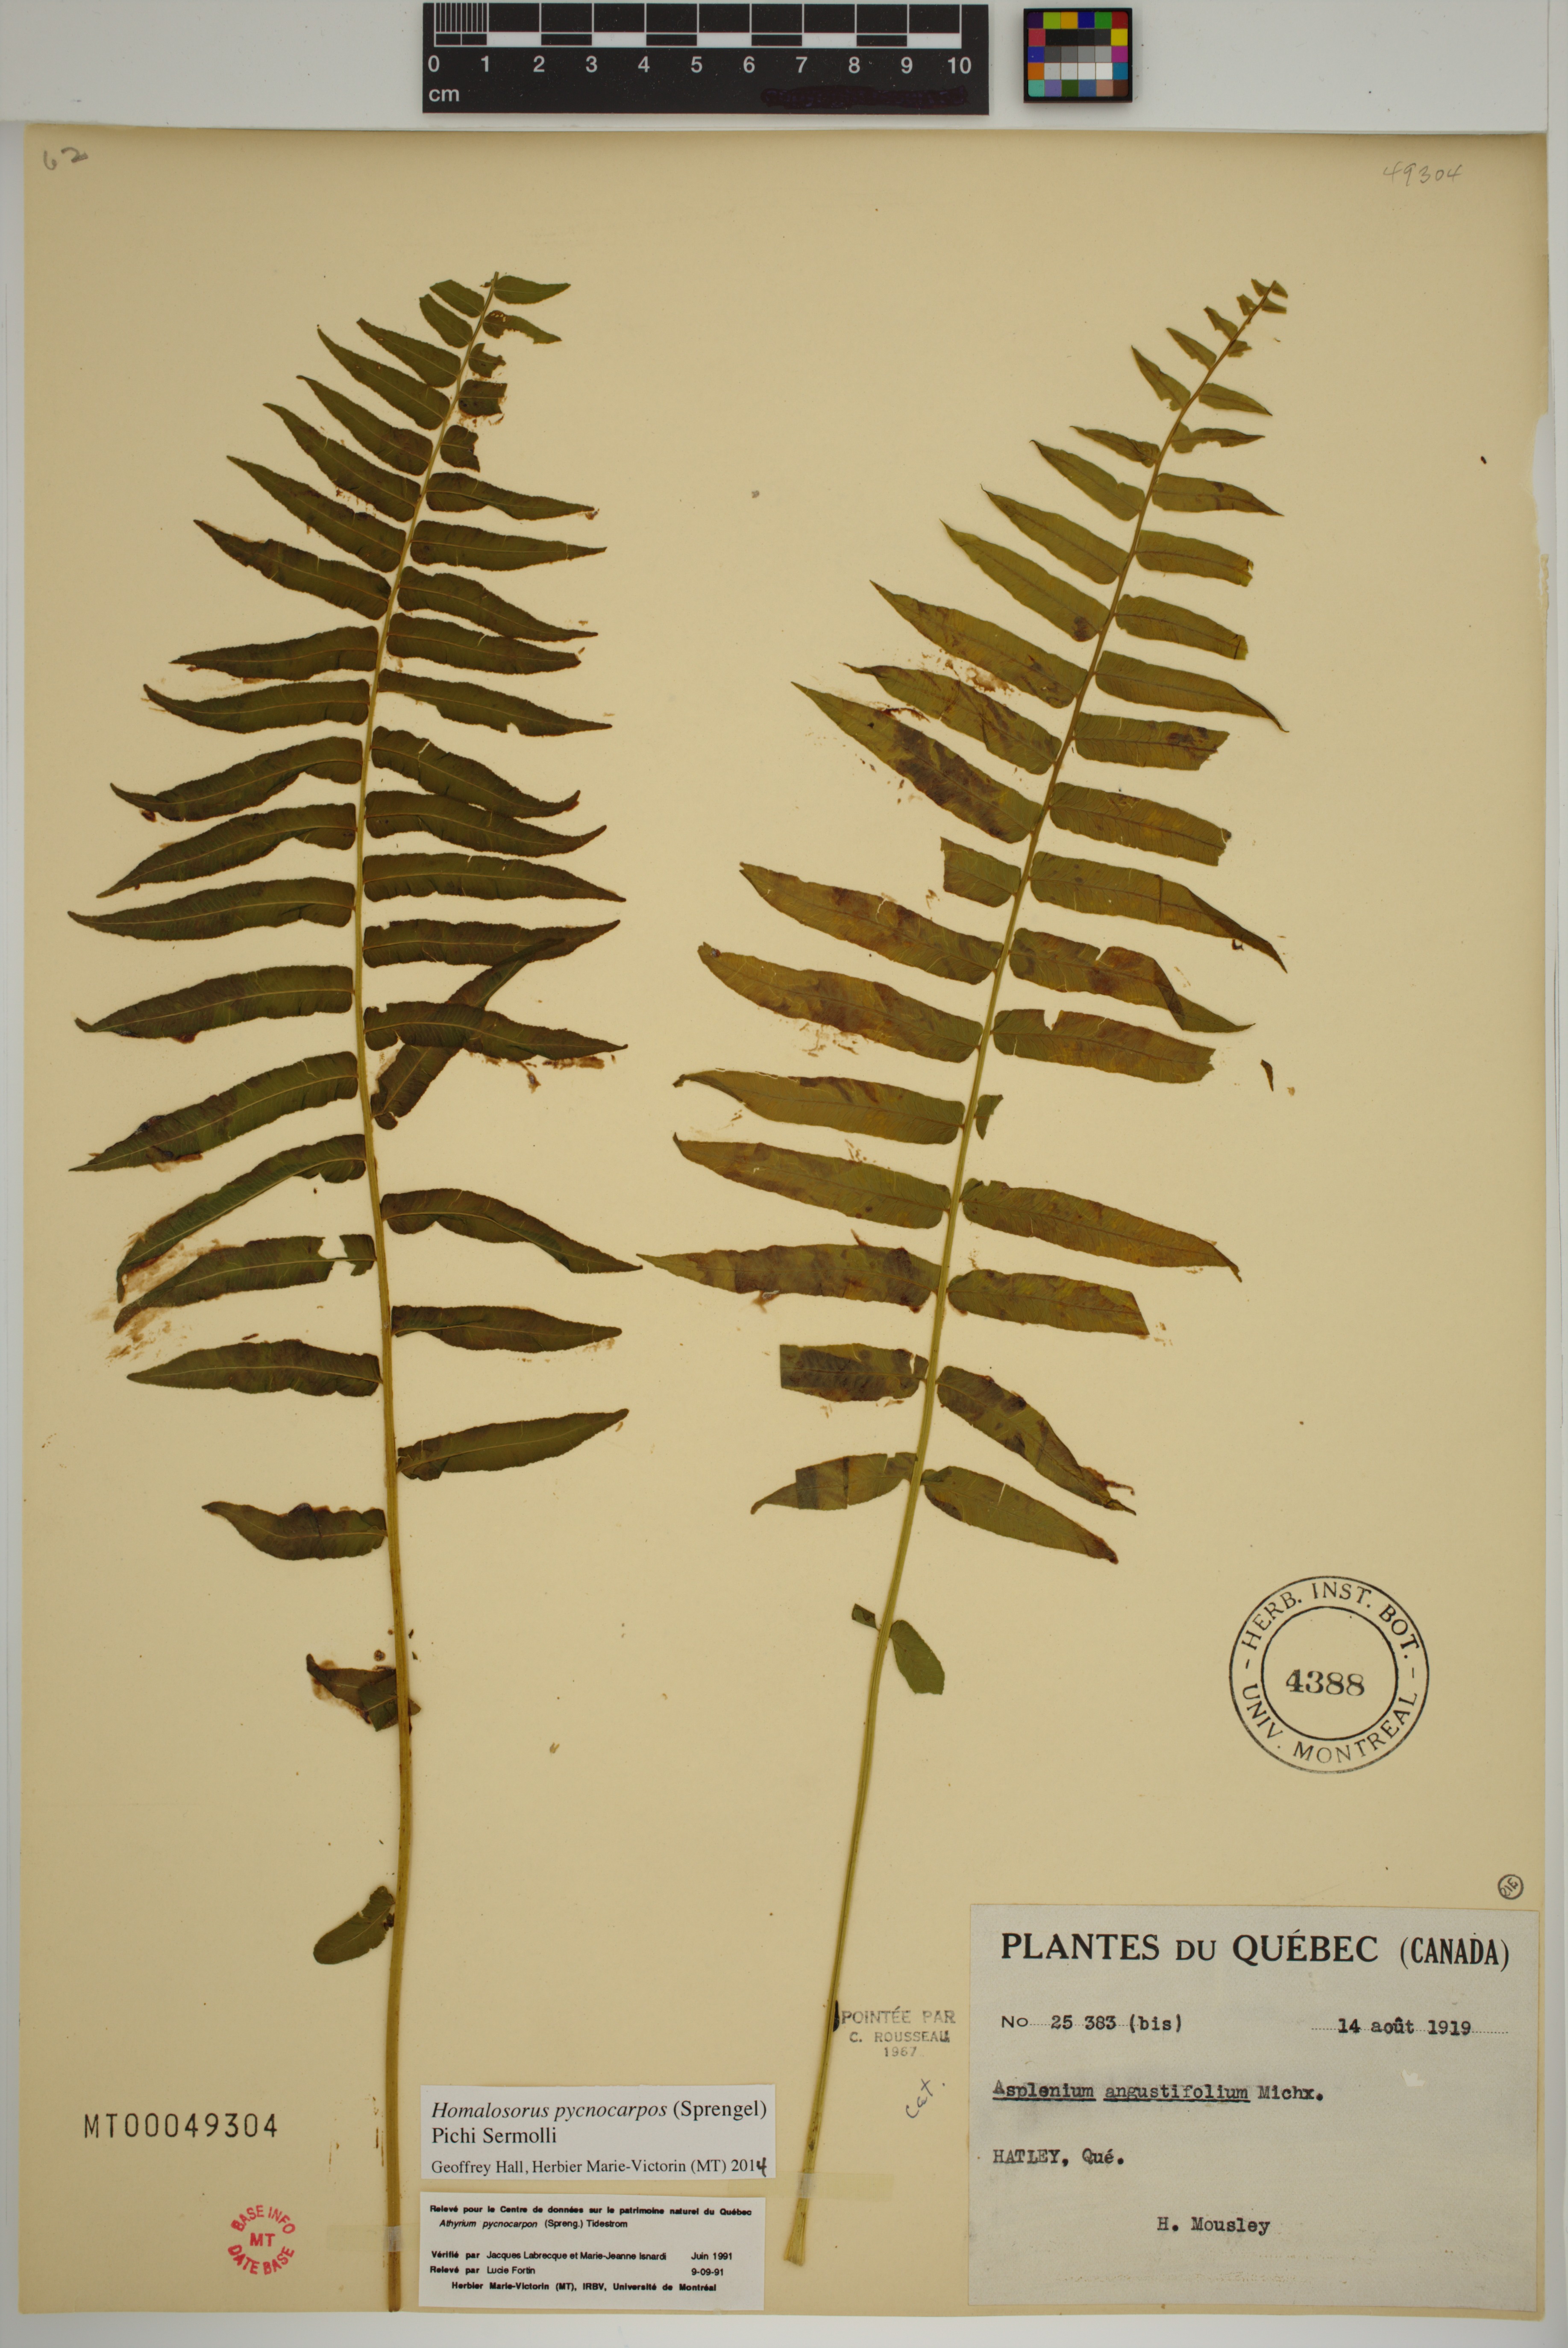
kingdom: Plantae
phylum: Tracheophyta
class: Polypodiopsida
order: Polypodiales
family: Diplaziopsidaceae
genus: Homalosorus
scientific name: Homalosorus pycnocarpos
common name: Glade fern
